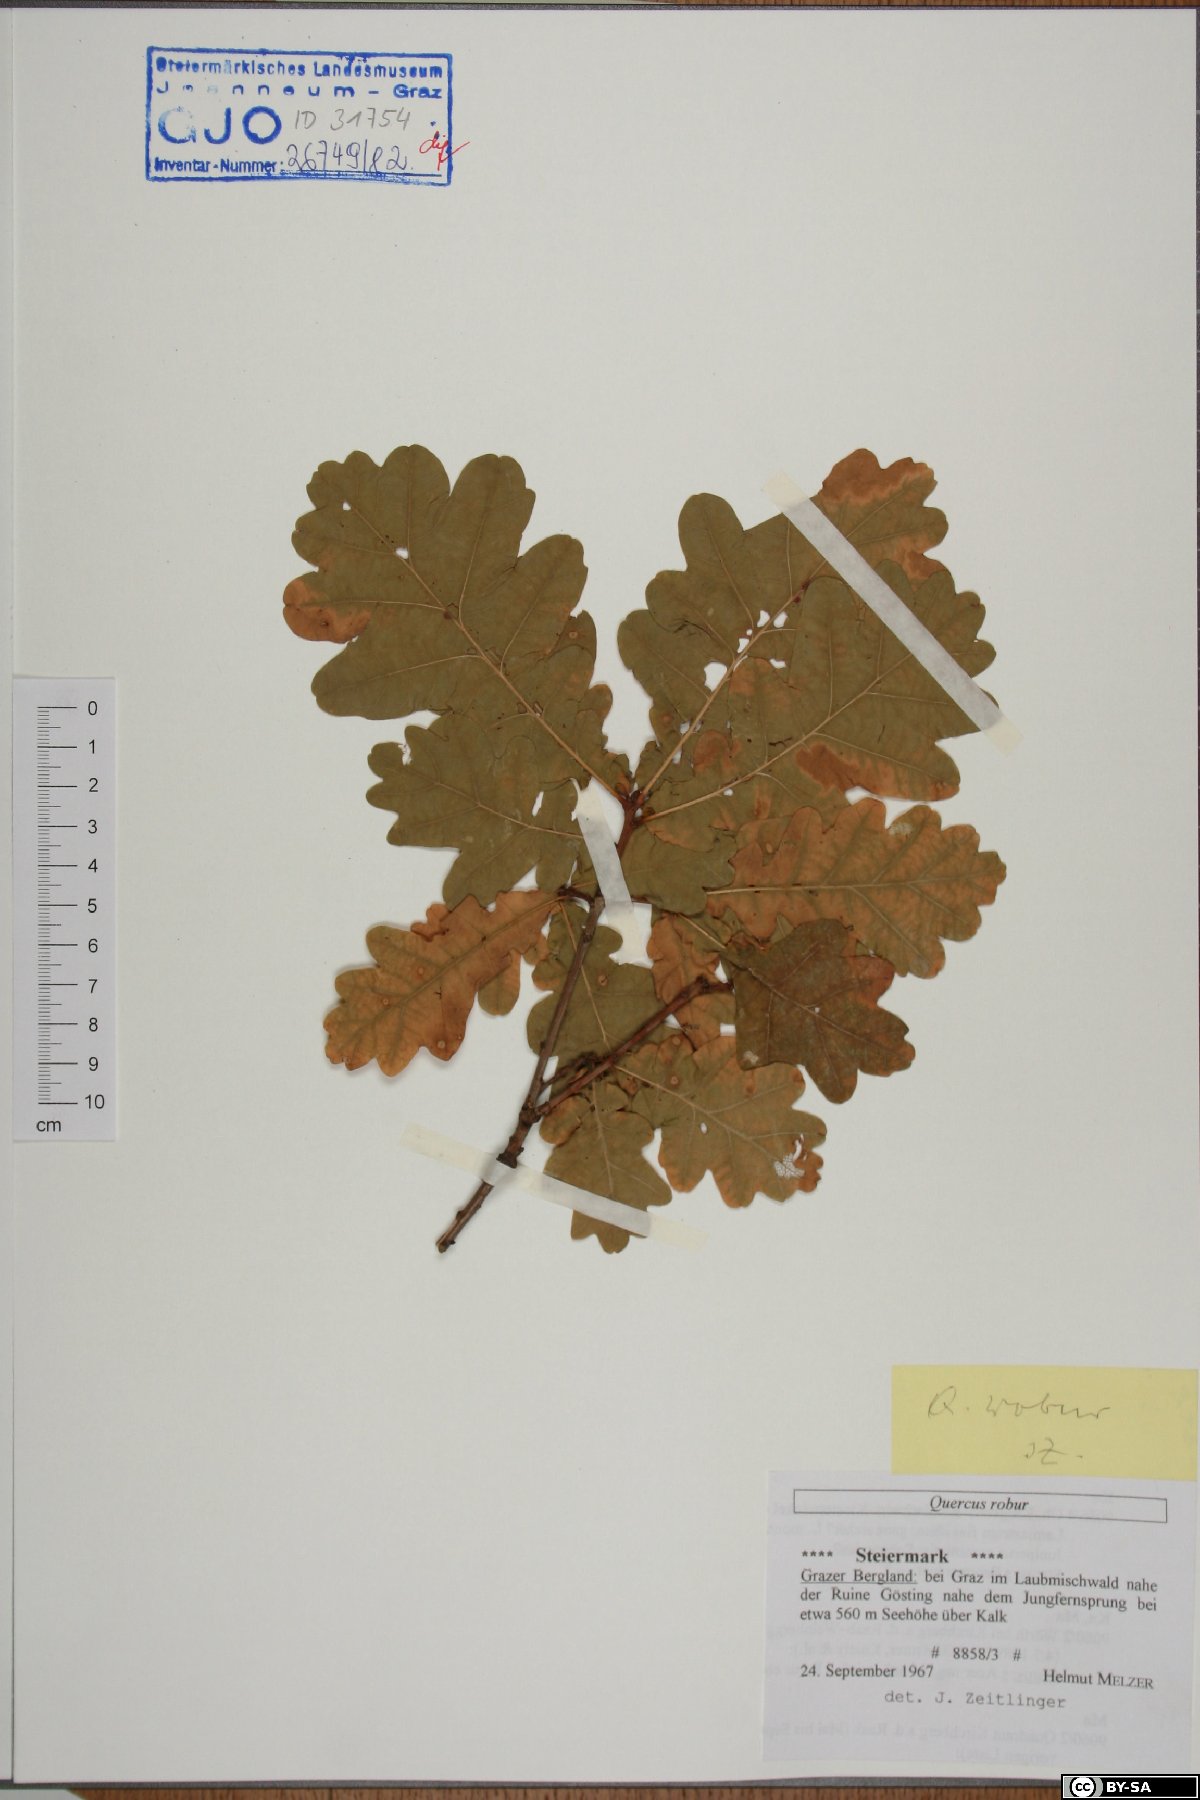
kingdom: Plantae
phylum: Tracheophyta
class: Magnoliopsida
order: Fagales
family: Fagaceae
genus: Quercus
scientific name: Quercus robur
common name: Pedunculate oak
